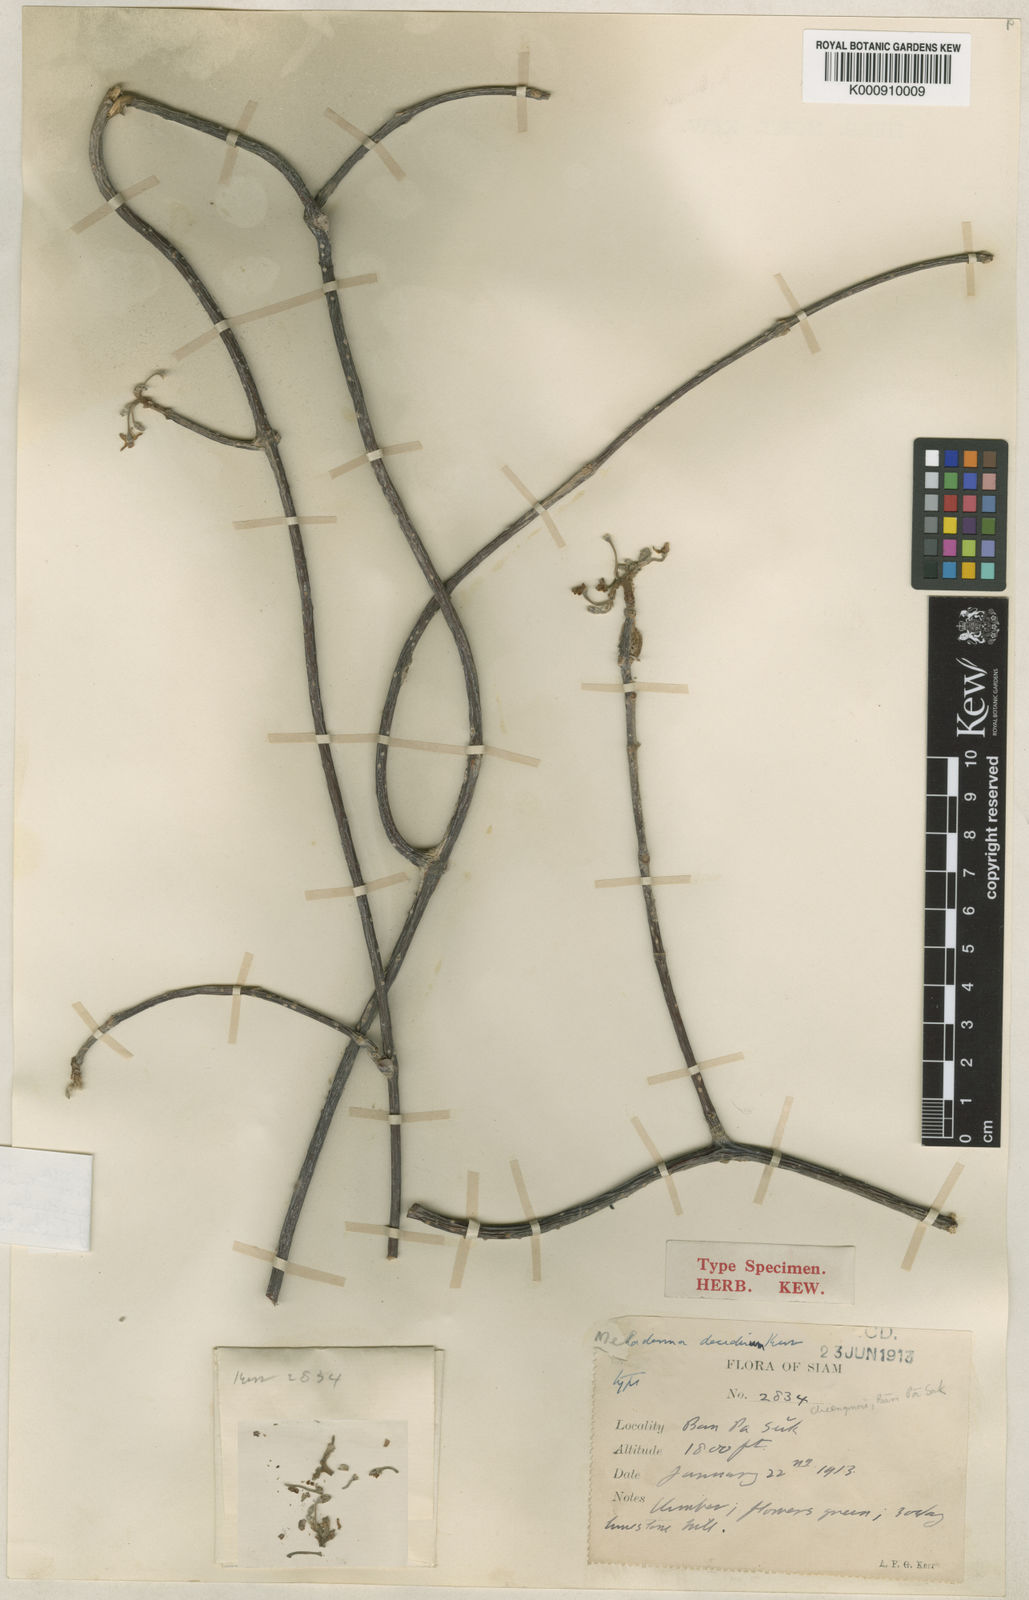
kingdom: Plantae
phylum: Tracheophyta
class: Magnoliopsida
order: Gentianales
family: Apocynaceae
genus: Finlaysonia
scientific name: Finlaysonia decidua
